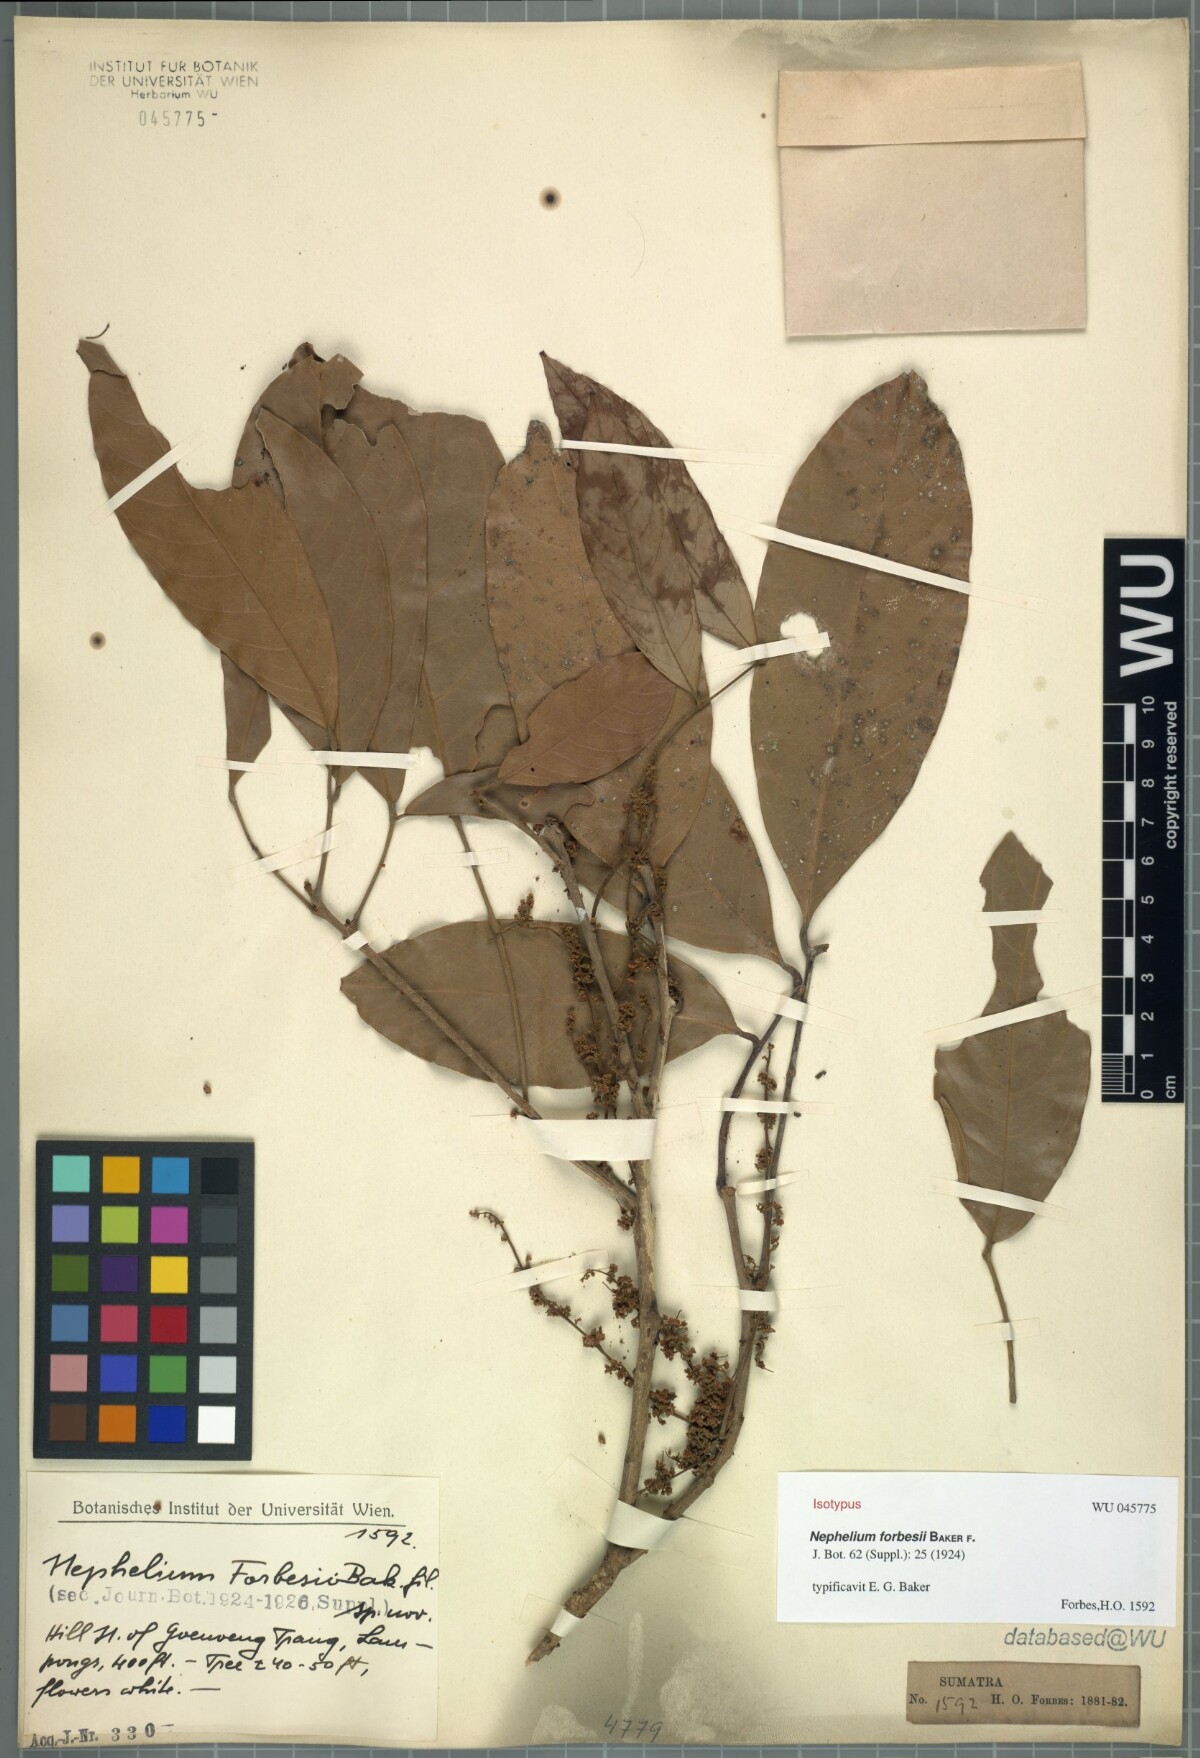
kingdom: Plantae
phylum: Tracheophyta
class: Magnoliopsida
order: Sapindales
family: Sapindaceae
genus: Paranephelium
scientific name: Paranephelium xestophyllum
